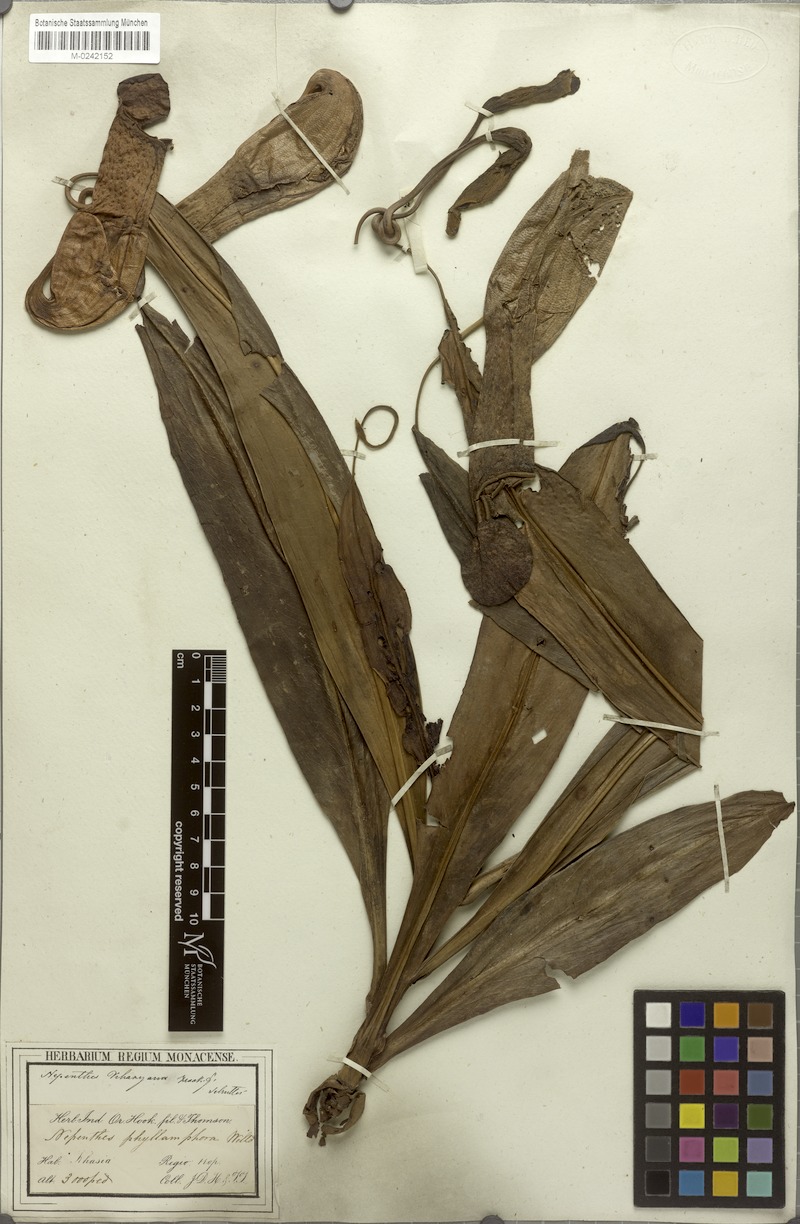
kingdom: Plantae
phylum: Tracheophyta
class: Magnoliopsida
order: Caryophyllales
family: Nepenthaceae
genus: Nepenthes
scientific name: Nepenthes khasiana
